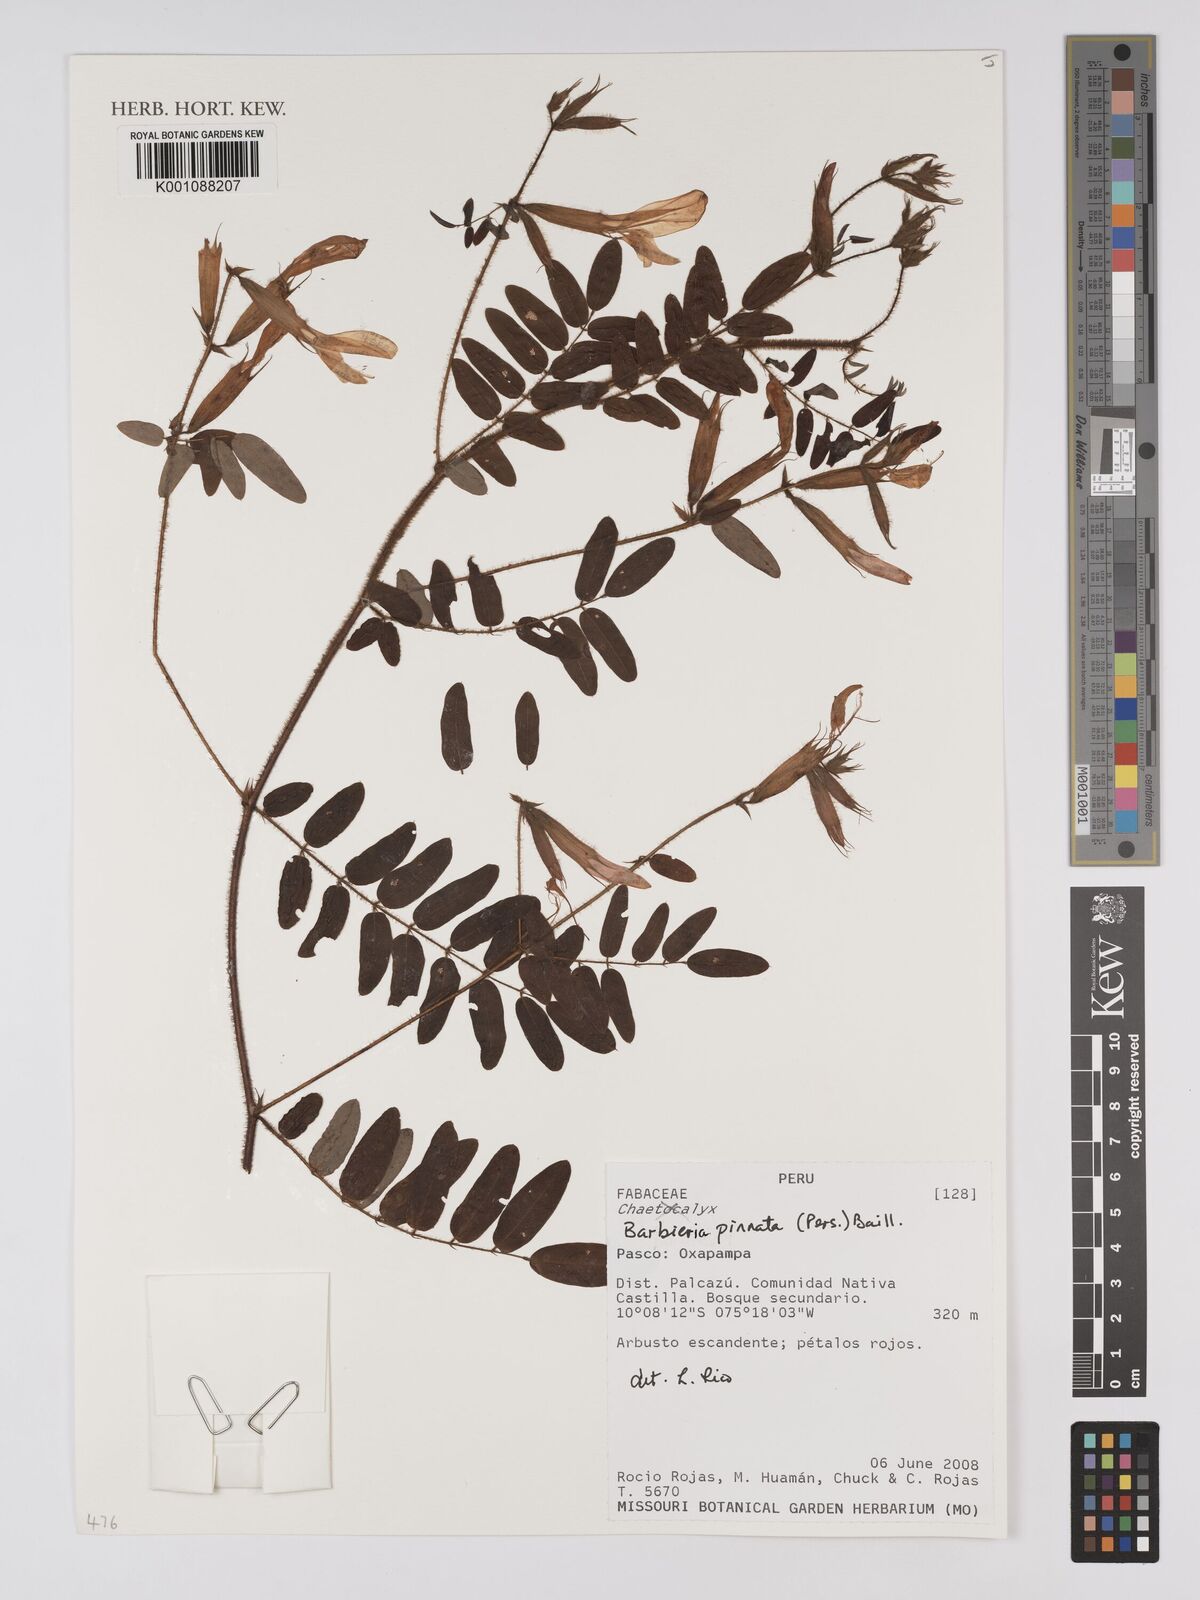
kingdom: Plantae
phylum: Tracheophyta
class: Magnoliopsida
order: Fabales
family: Fabaceae
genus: Barbieria
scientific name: Barbieria pinnata
